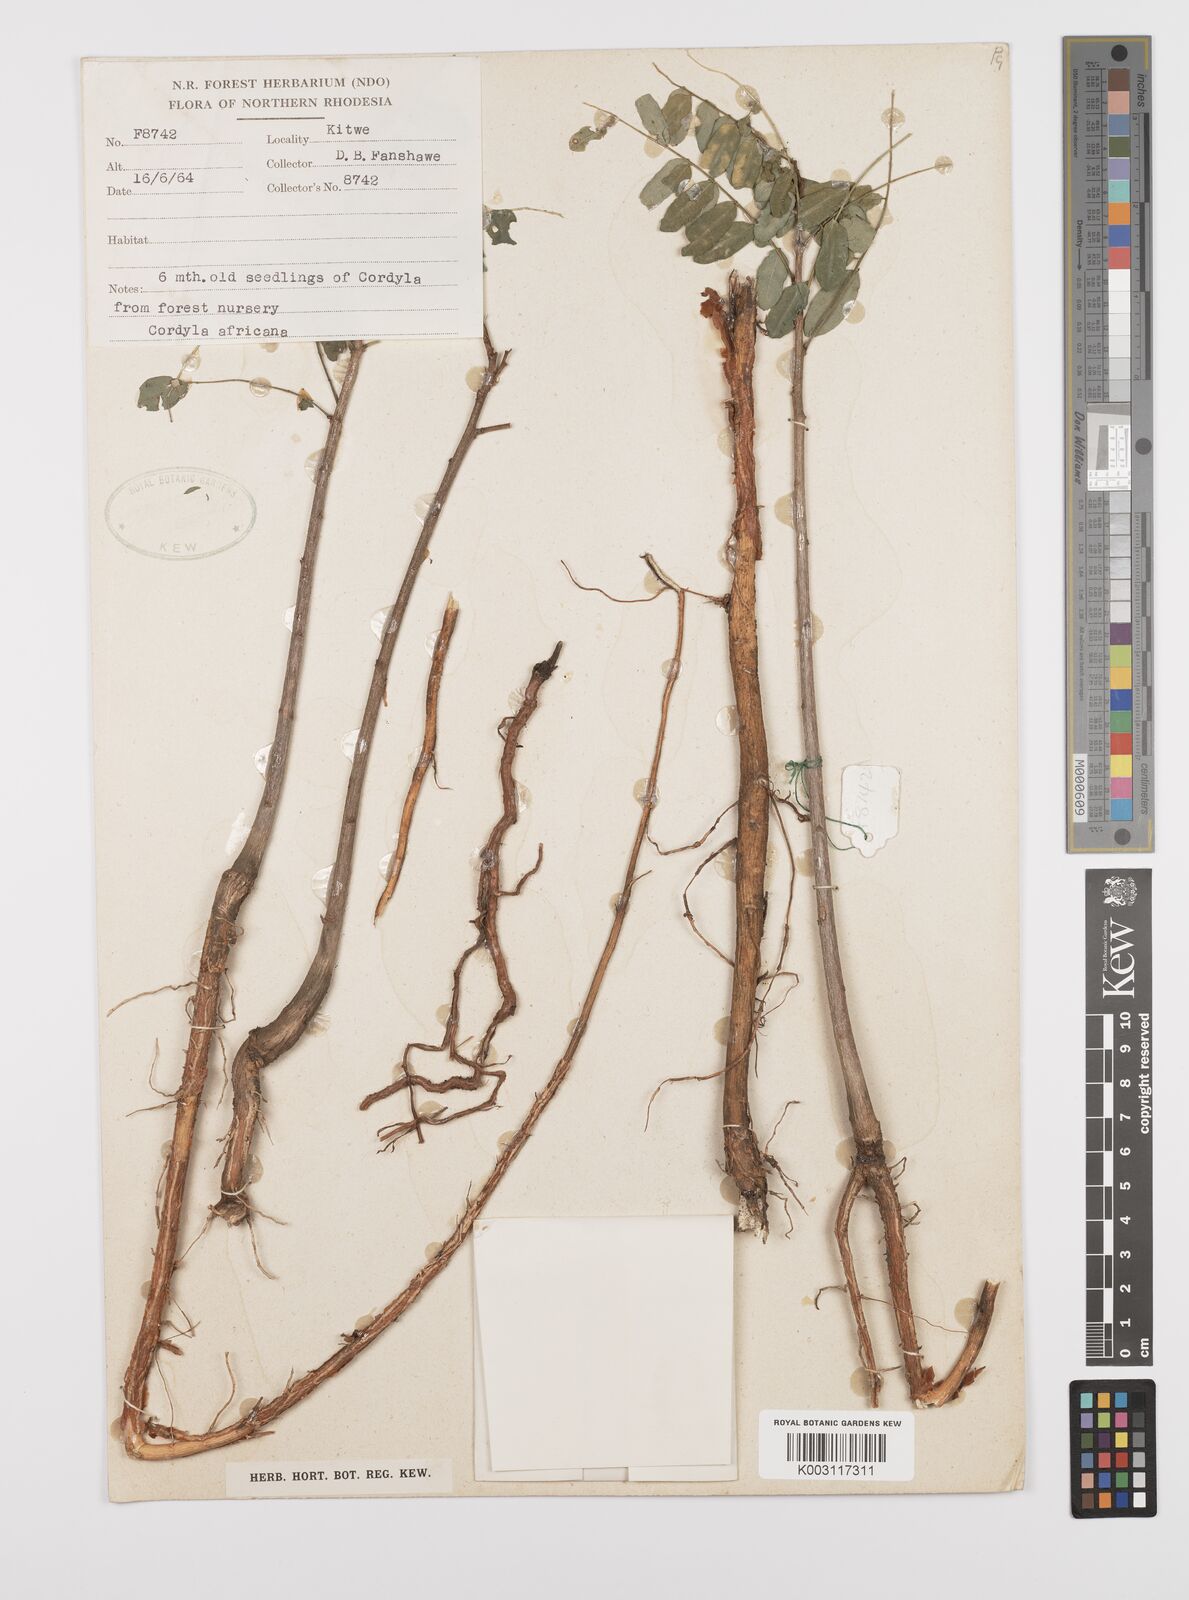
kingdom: Plantae
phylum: Tracheophyta
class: Magnoliopsida
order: Fabales
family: Fabaceae
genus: Cordyla
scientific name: Cordyla africana
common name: Wild mango
